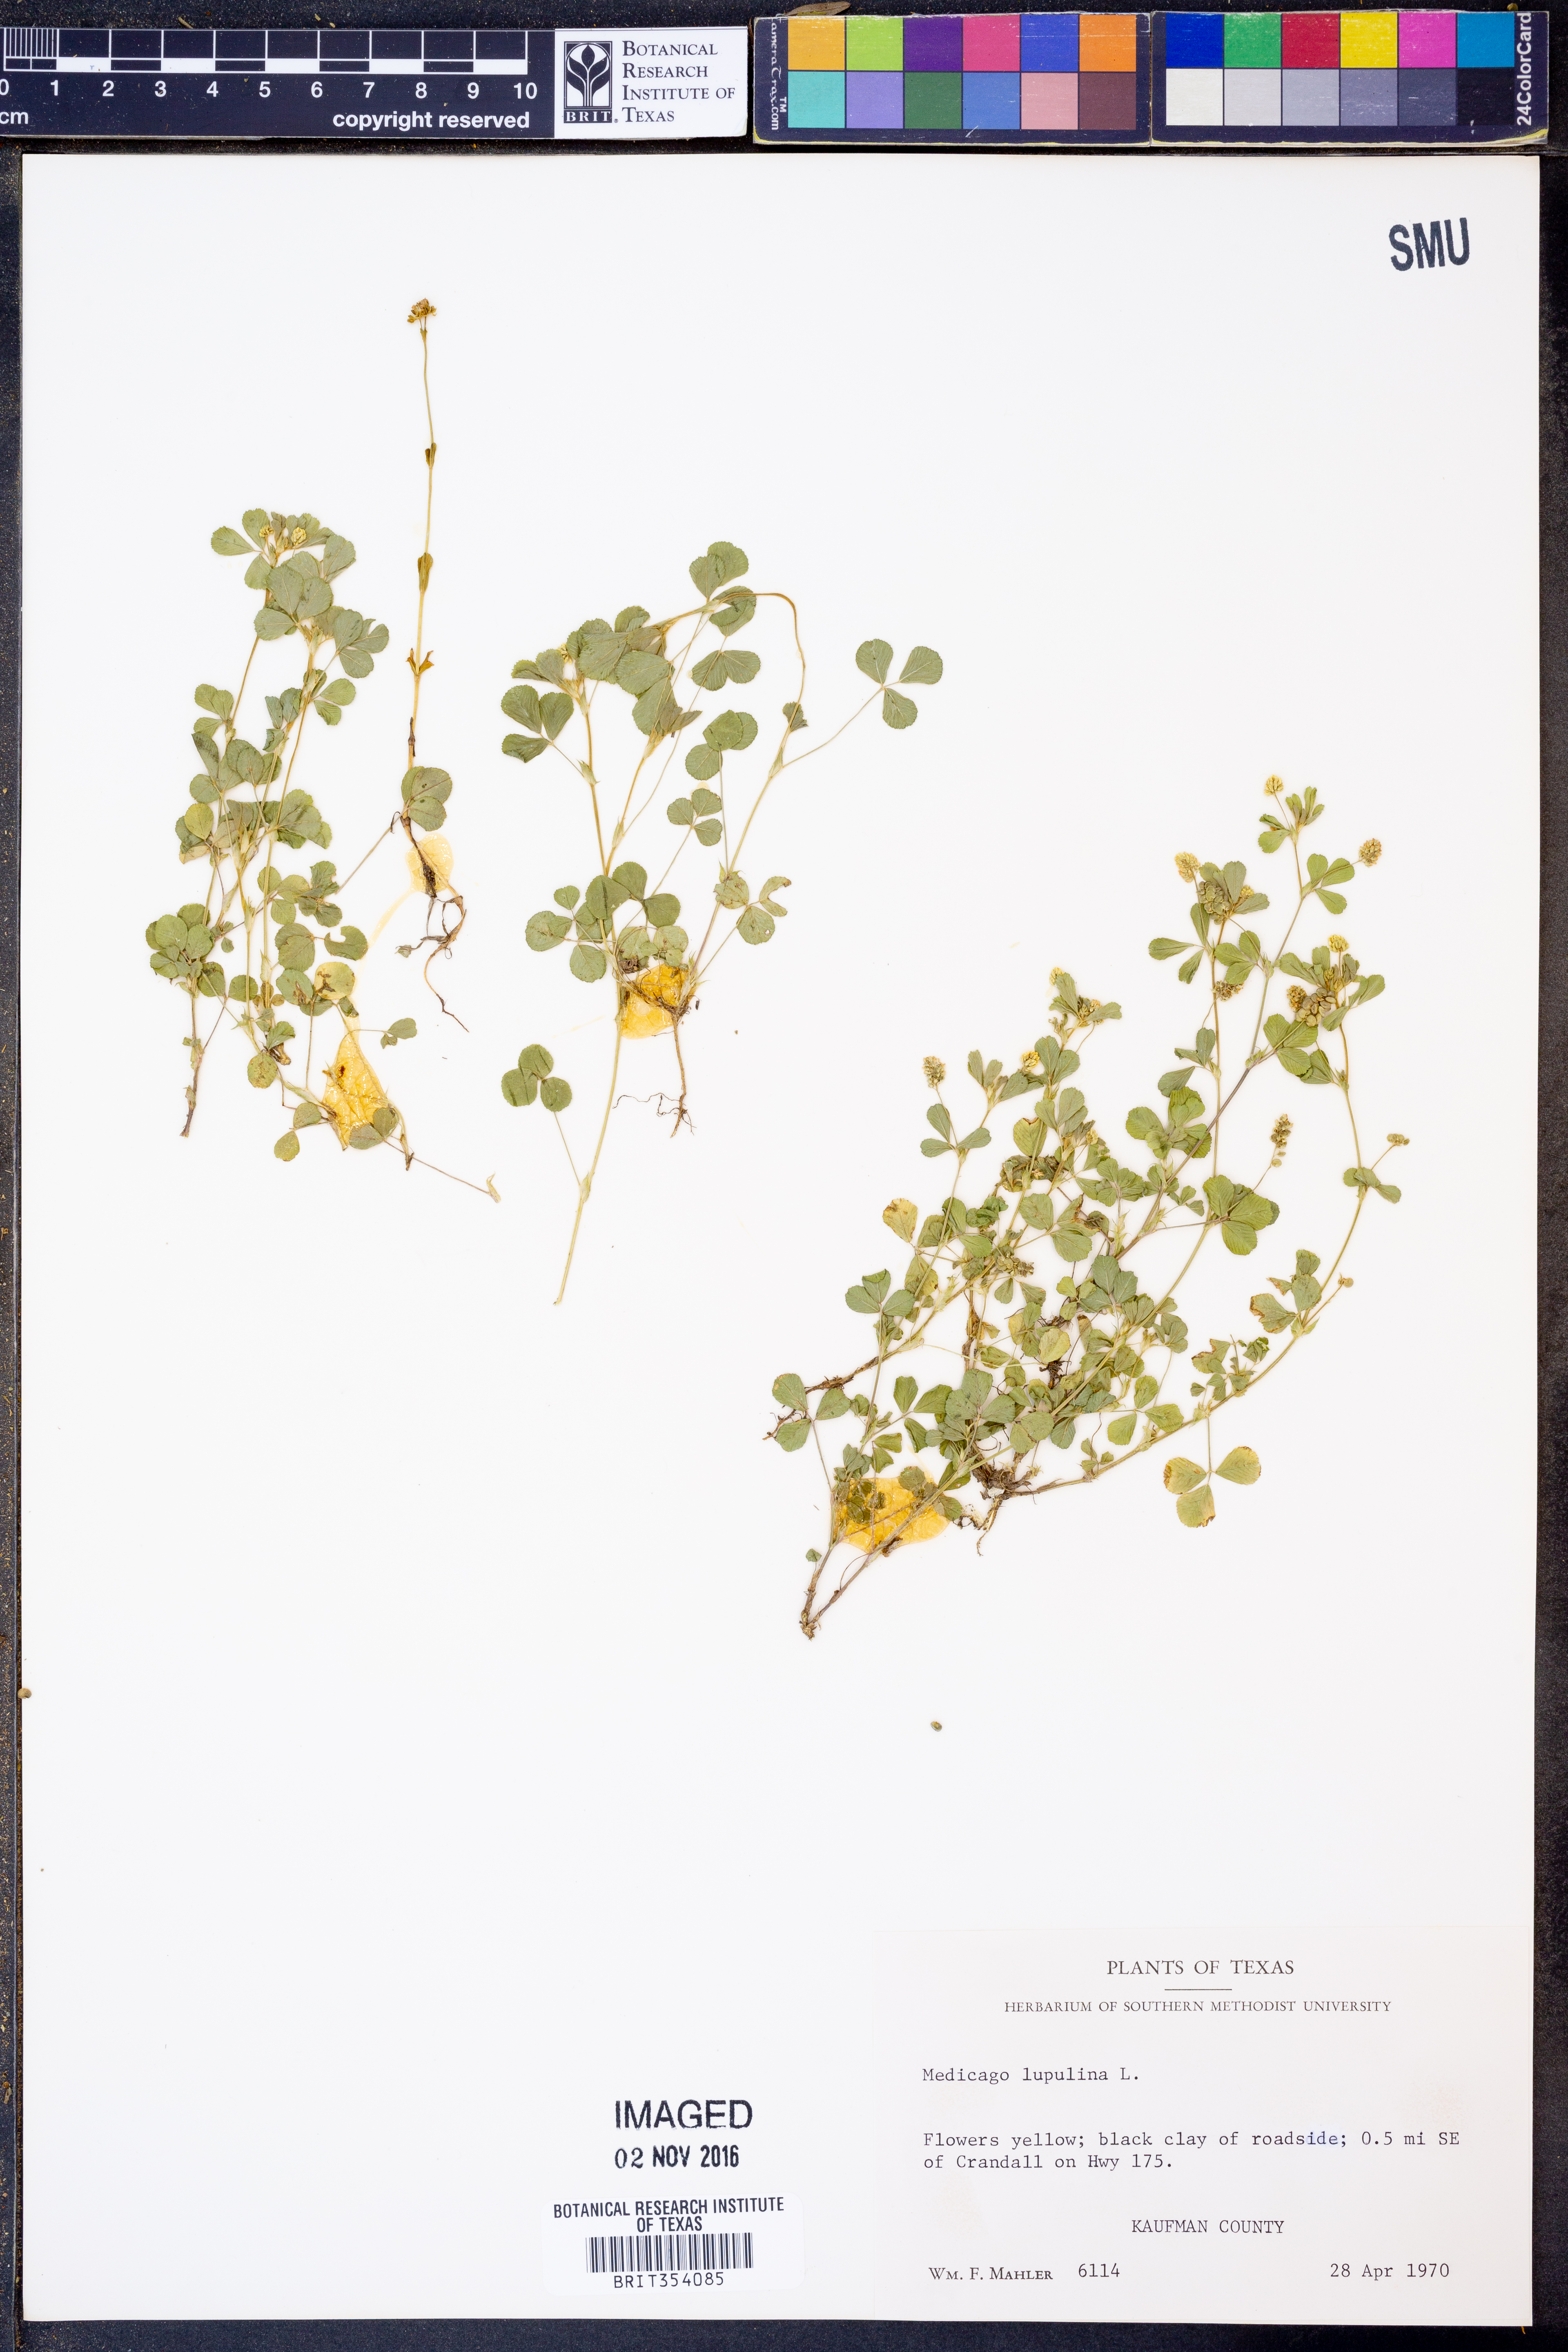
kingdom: Plantae
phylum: Tracheophyta
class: Magnoliopsida
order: Fabales
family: Fabaceae
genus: Medicago
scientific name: Medicago lupulina
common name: Black medick
